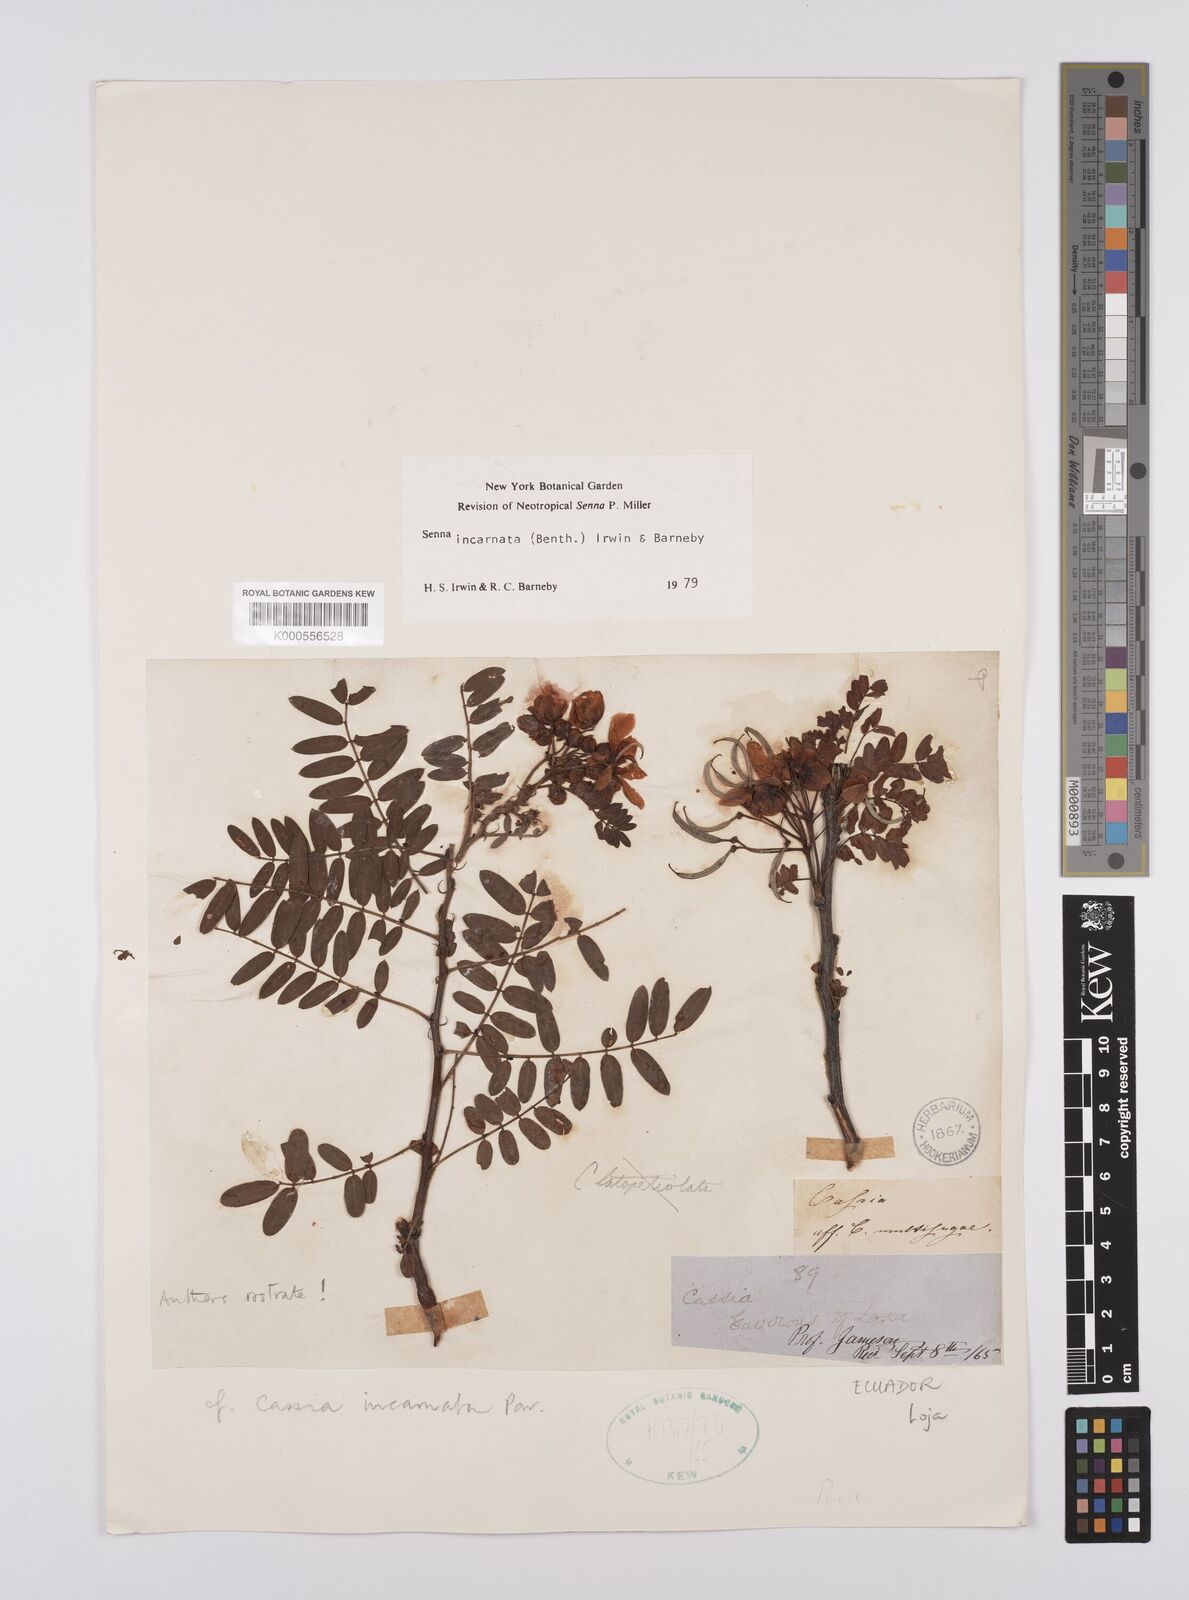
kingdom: Plantae
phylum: Tracheophyta
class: Magnoliopsida
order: Fabales
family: Fabaceae
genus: Senna
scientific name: Senna incarnata
